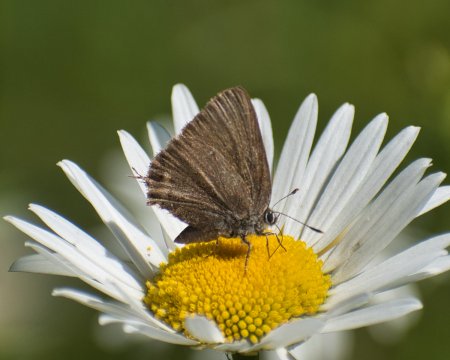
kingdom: Animalia
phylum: Arthropoda
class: Insecta
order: Lepidoptera
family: Lycaenidae
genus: Mitoura
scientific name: Mitoura gryneus
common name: Juniper Hairstreak
